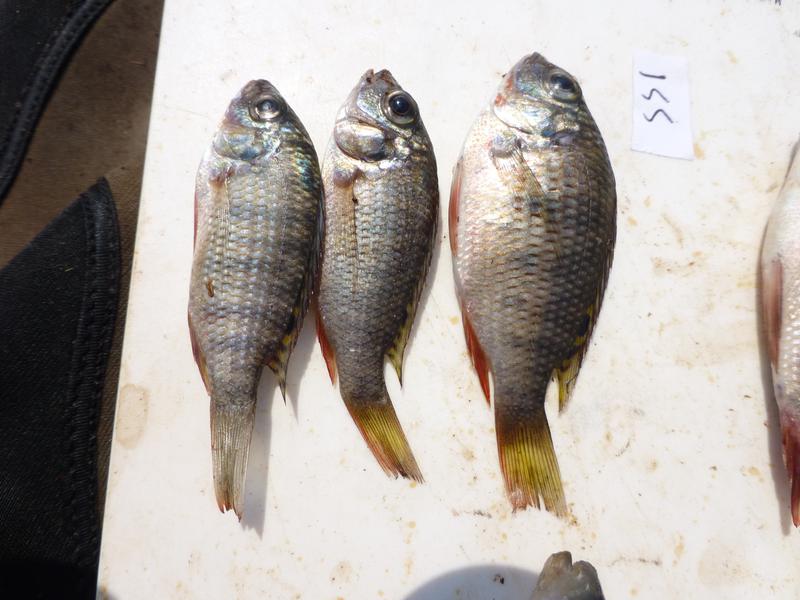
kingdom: Animalia
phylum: Chordata
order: Perciformes
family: Cichlidae
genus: Coptodon
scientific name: Coptodon rendalli
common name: Redbreast tilapia
